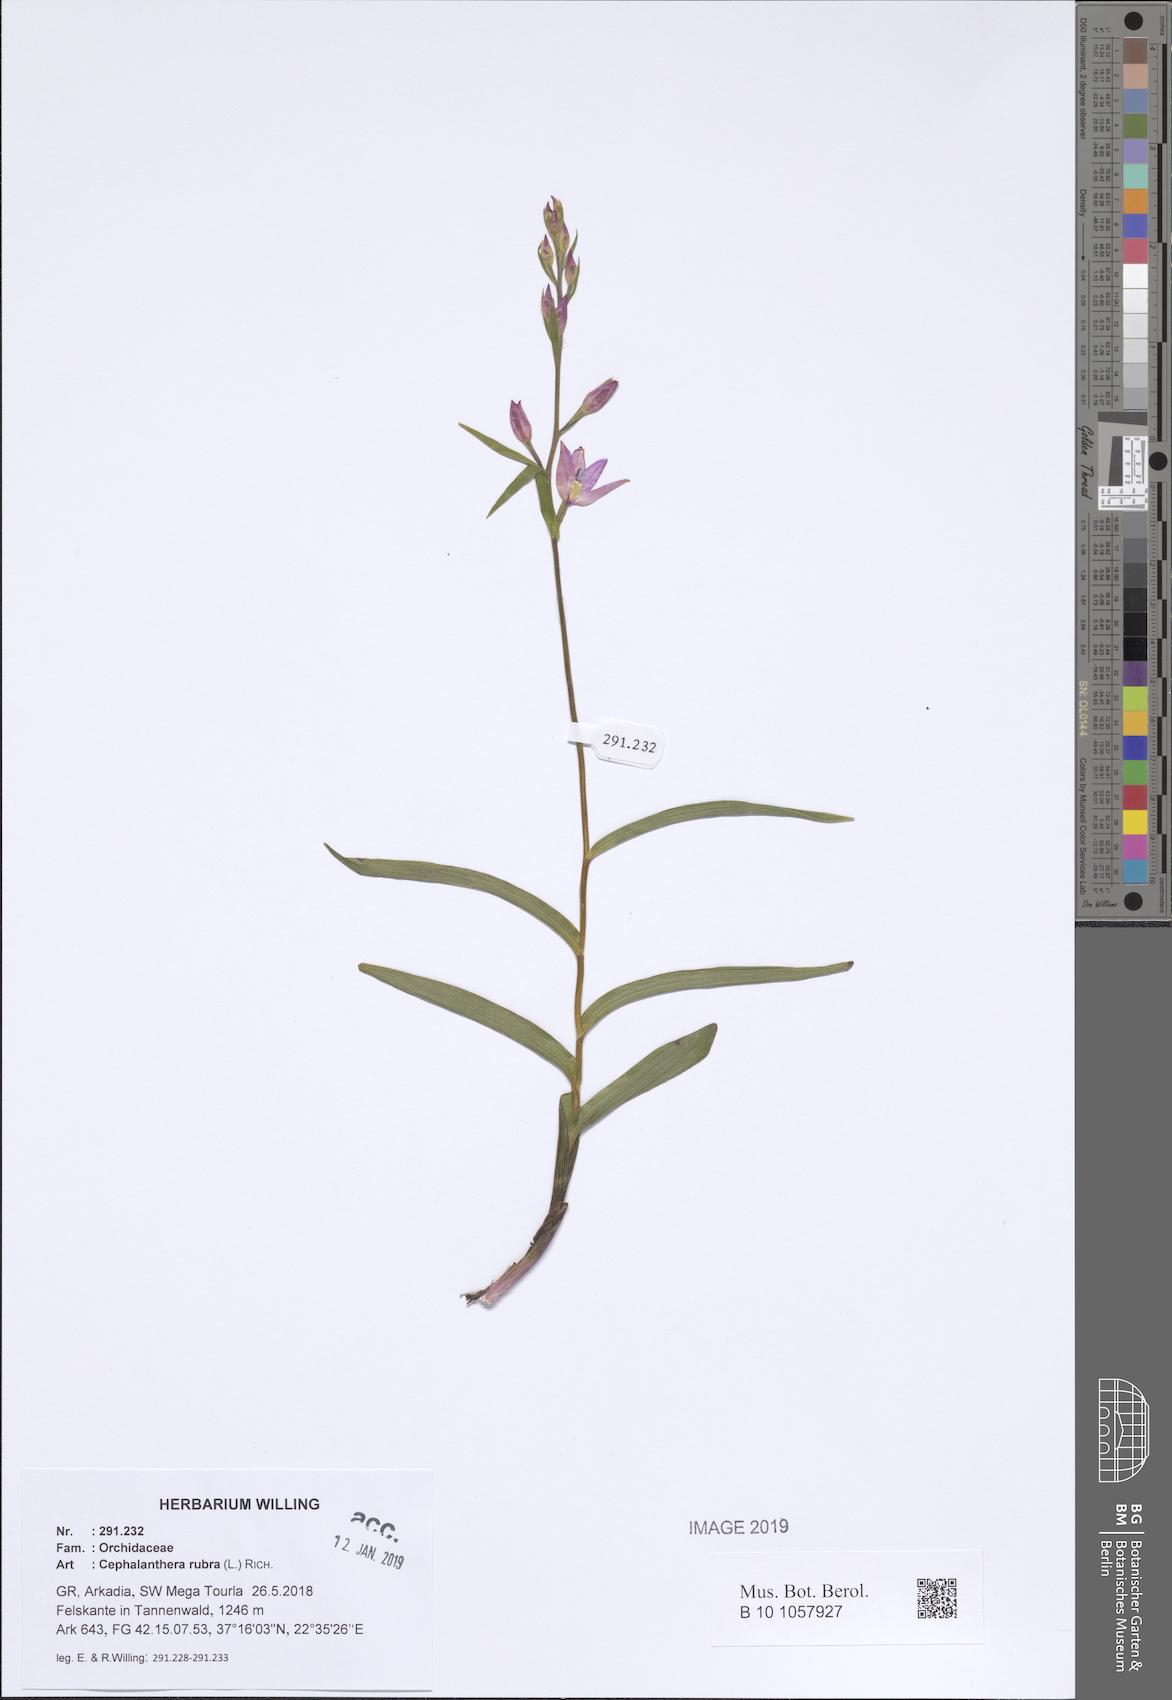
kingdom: Plantae
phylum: Tracheophyta
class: Liliopsida
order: Asparagales
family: Orchidaceae
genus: Cephalanthera
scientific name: Cephalanthera rubra
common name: Red helleborine
